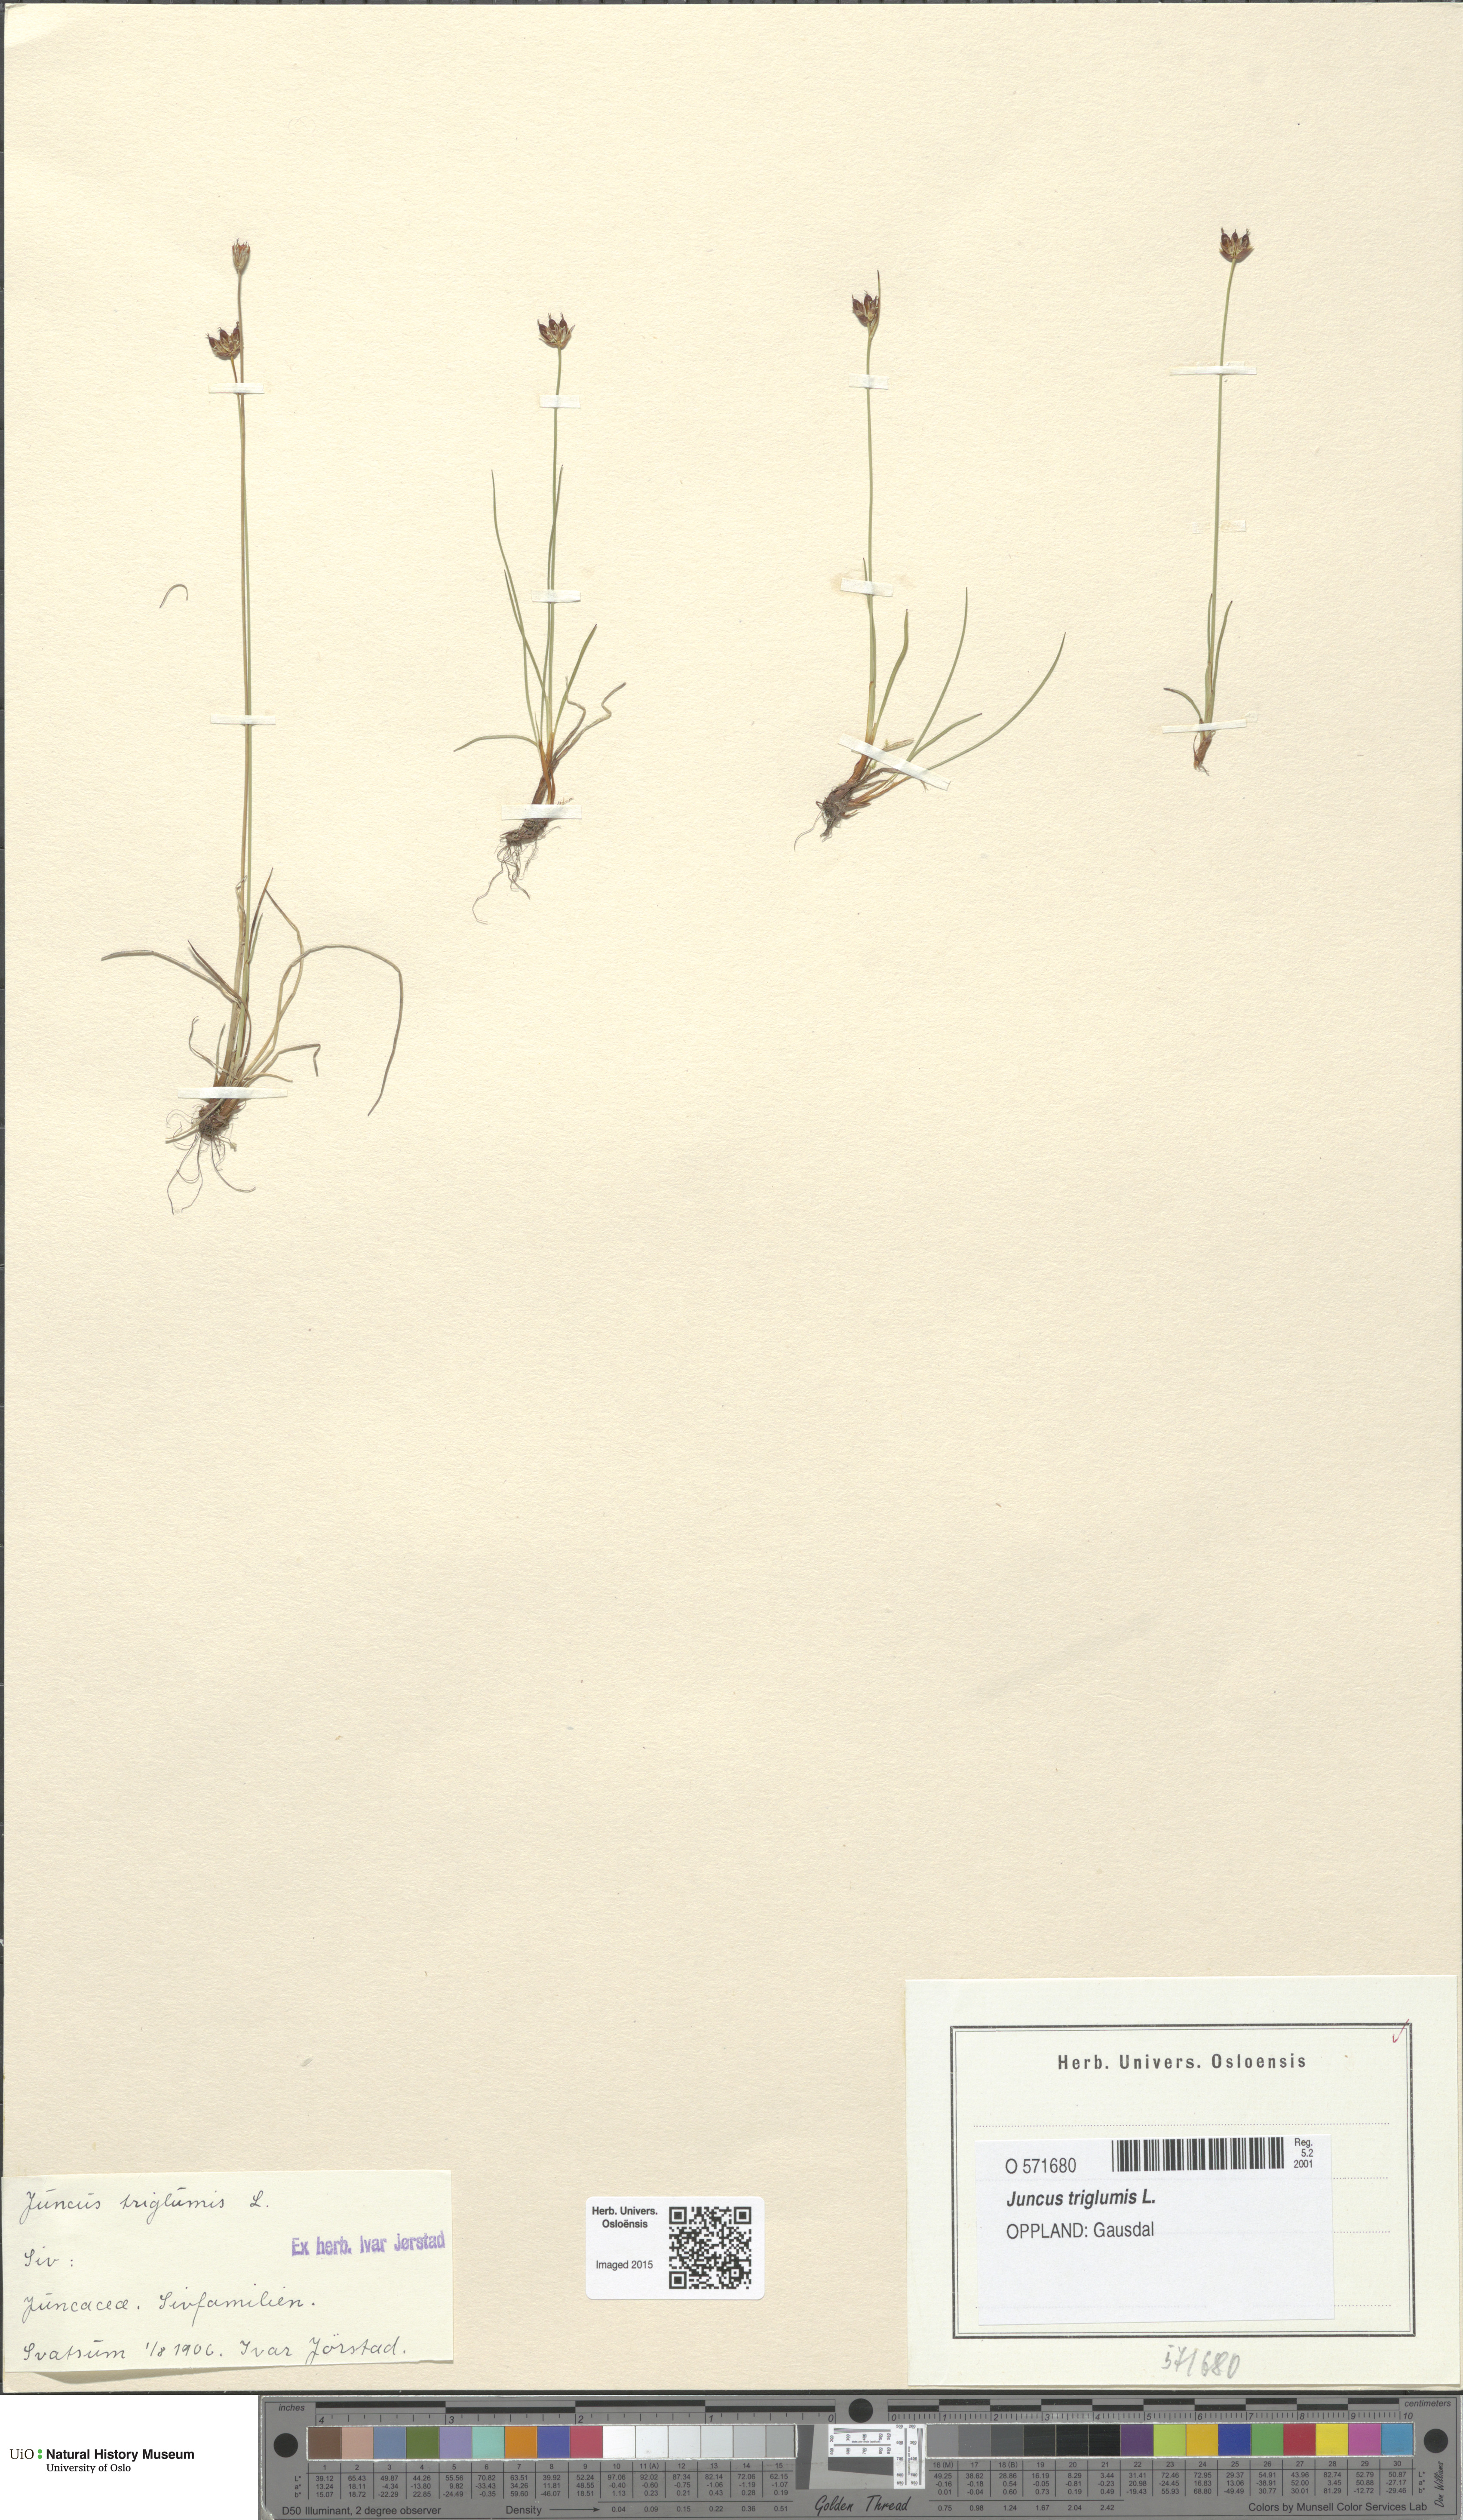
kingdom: Plantae
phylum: Tracheophyta
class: Liliopsida
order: Poales
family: Juncaceae
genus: Juncus
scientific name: Juncus triglumis
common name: Three-flowered rush
